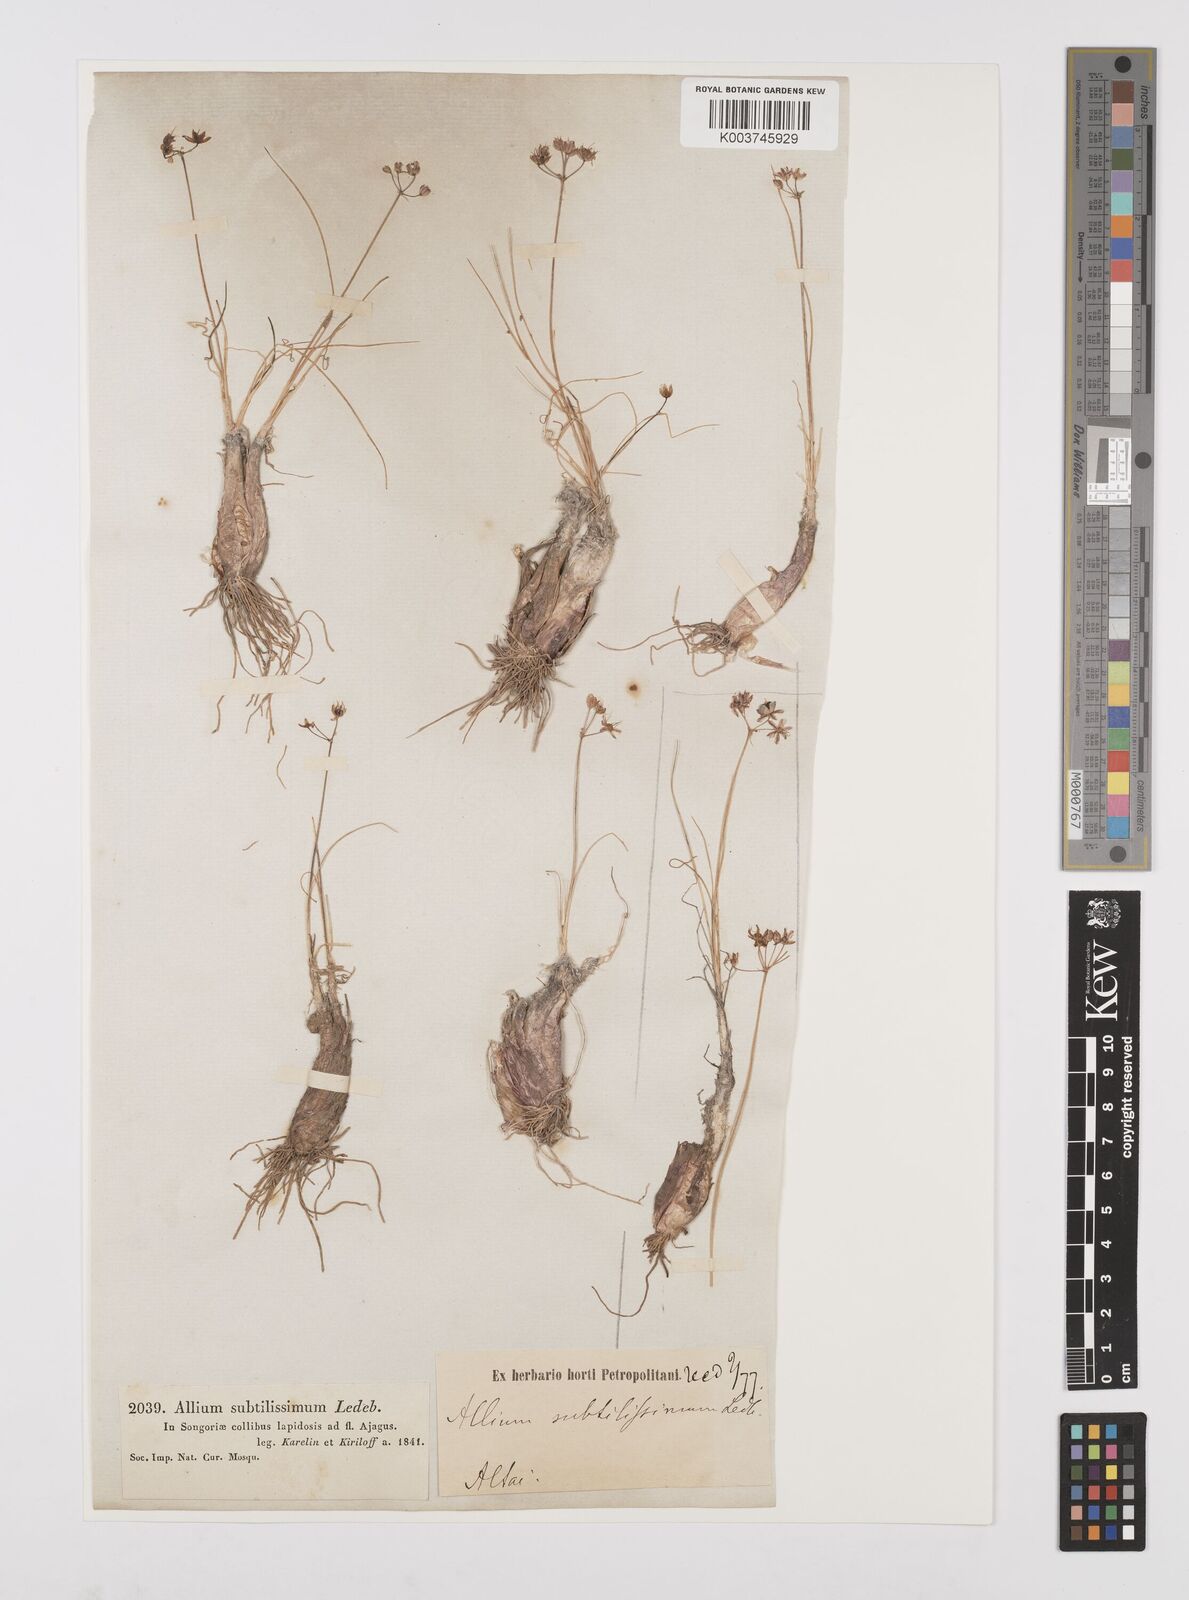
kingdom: Plantae
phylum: Tracheophyta
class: Liliopsida
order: Asparagales
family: Amaryllidaceae
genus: Allium
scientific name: Allium subtilissimum
